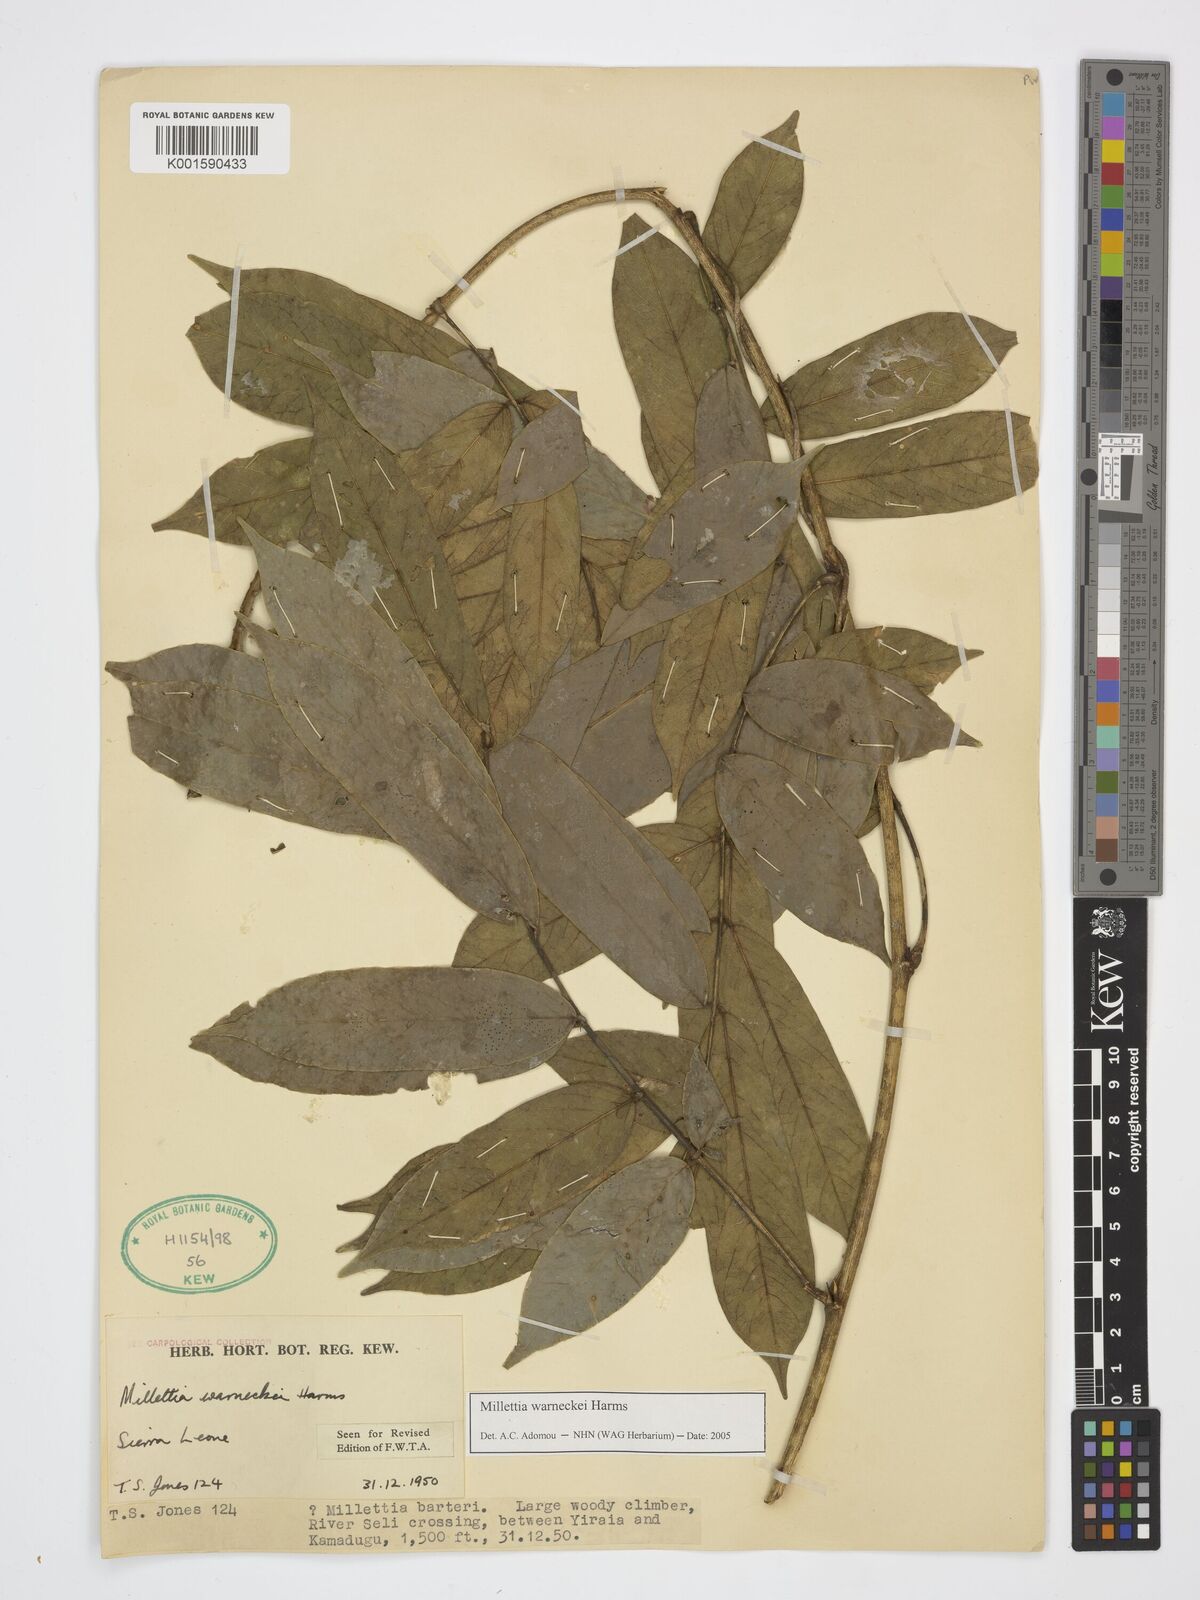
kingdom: Plantae
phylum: Tracheophyta
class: Magnoliopsida
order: Fabales
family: Fabaceae
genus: Millettia
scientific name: Millettia warneckei
